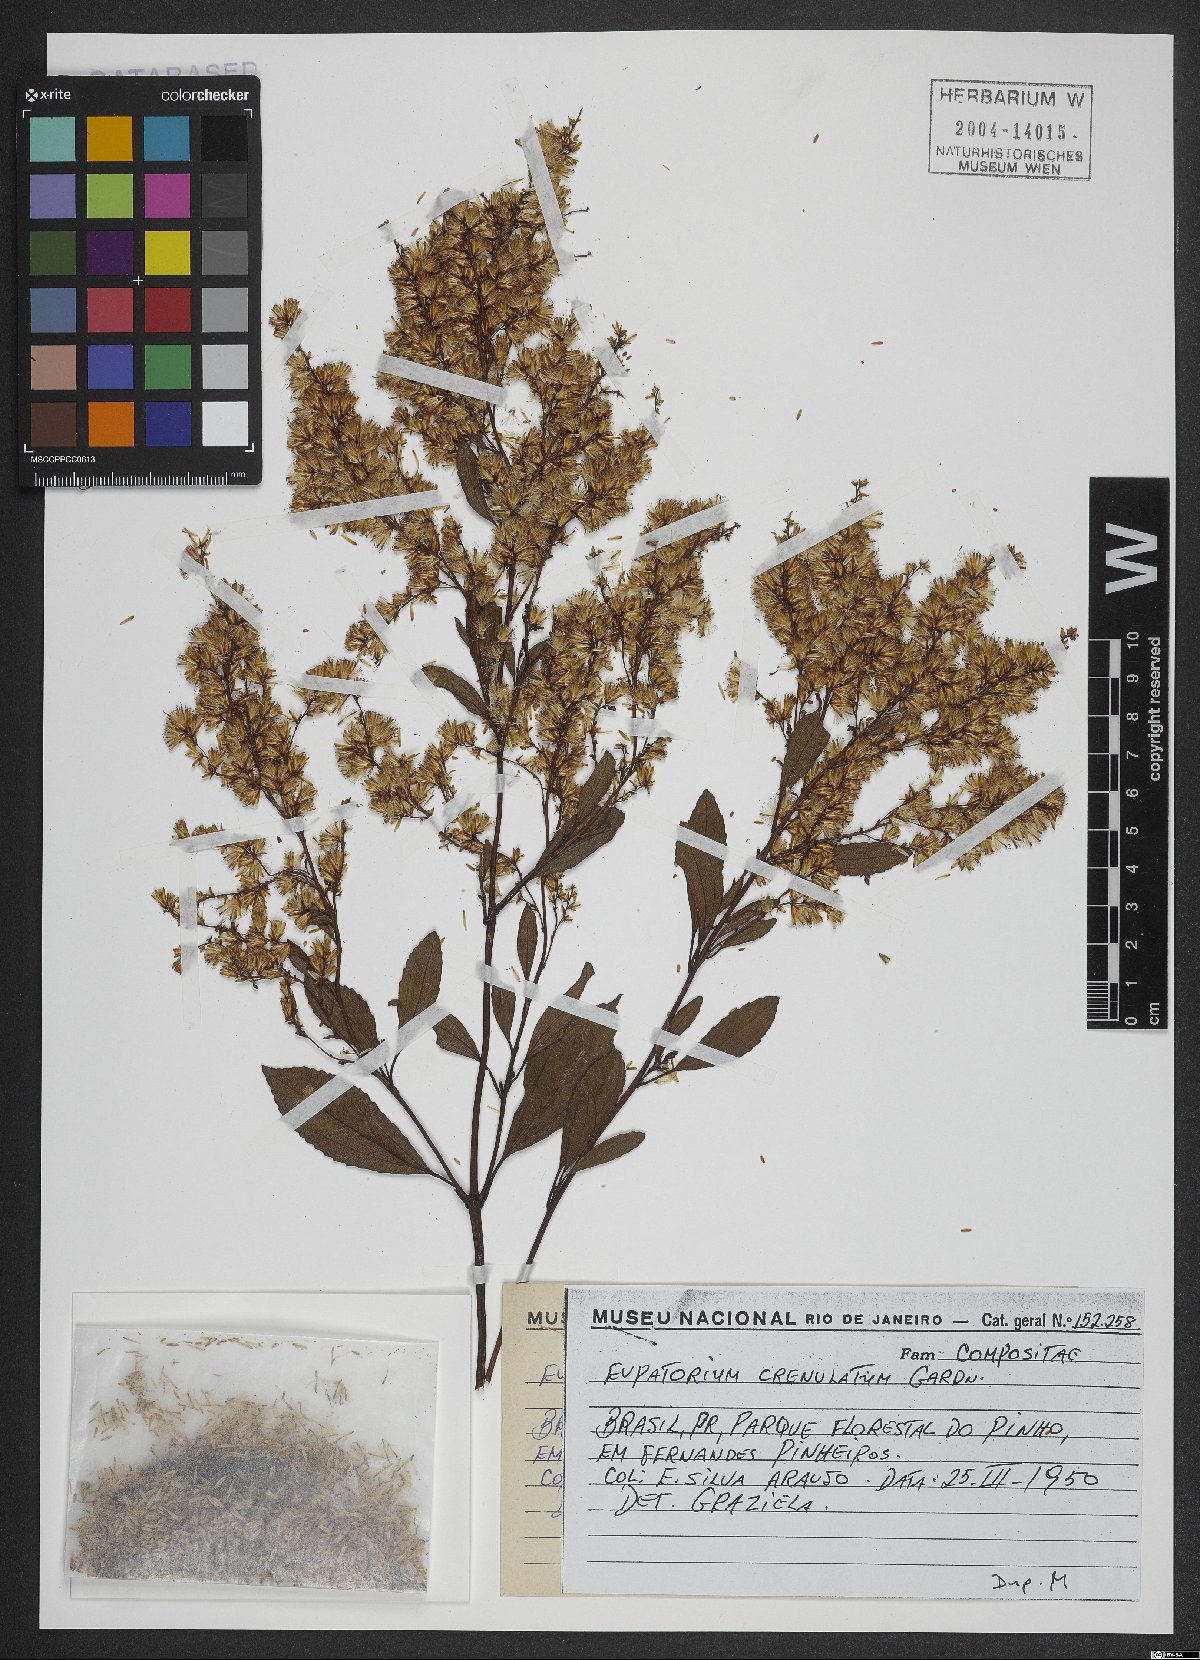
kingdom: Plantae
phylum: Tracheophyta
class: Magnoliopsida
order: Asterales
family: Asteraceae
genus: Trichogonia
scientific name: Trichogonia crenulata
